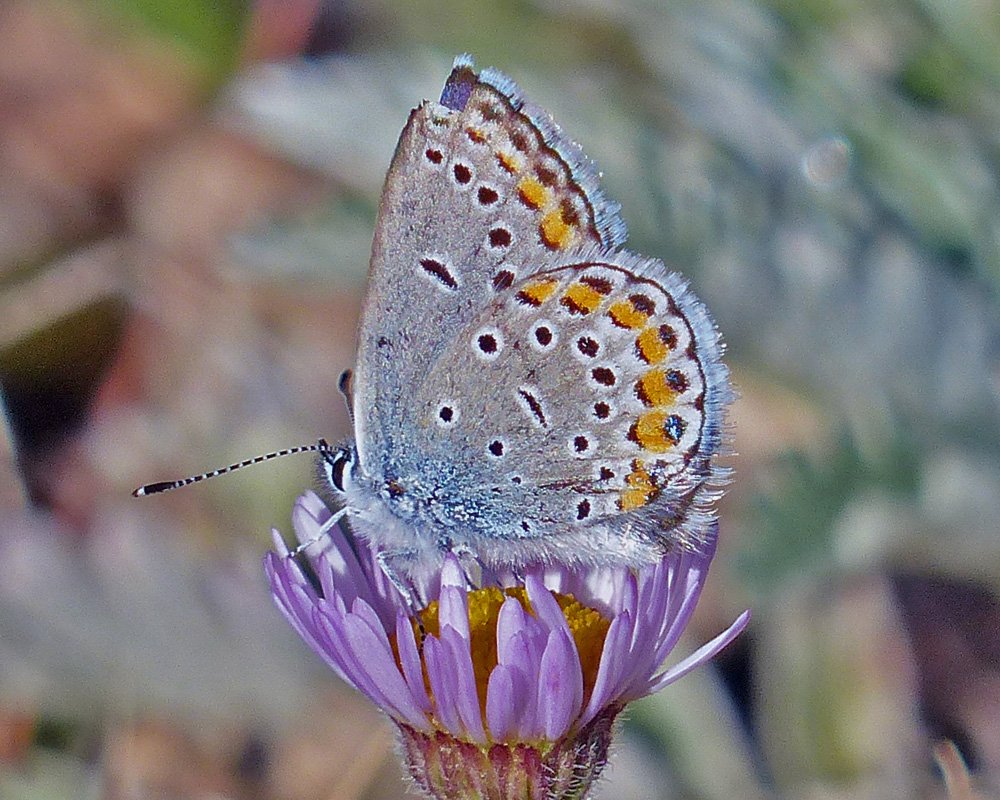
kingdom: Animalia
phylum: Arthropoda
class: Insecta
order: Lepidoptera
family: Lycaenidae
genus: Lycaeides
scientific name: Lycaeides melissa
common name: Melissa Blue
